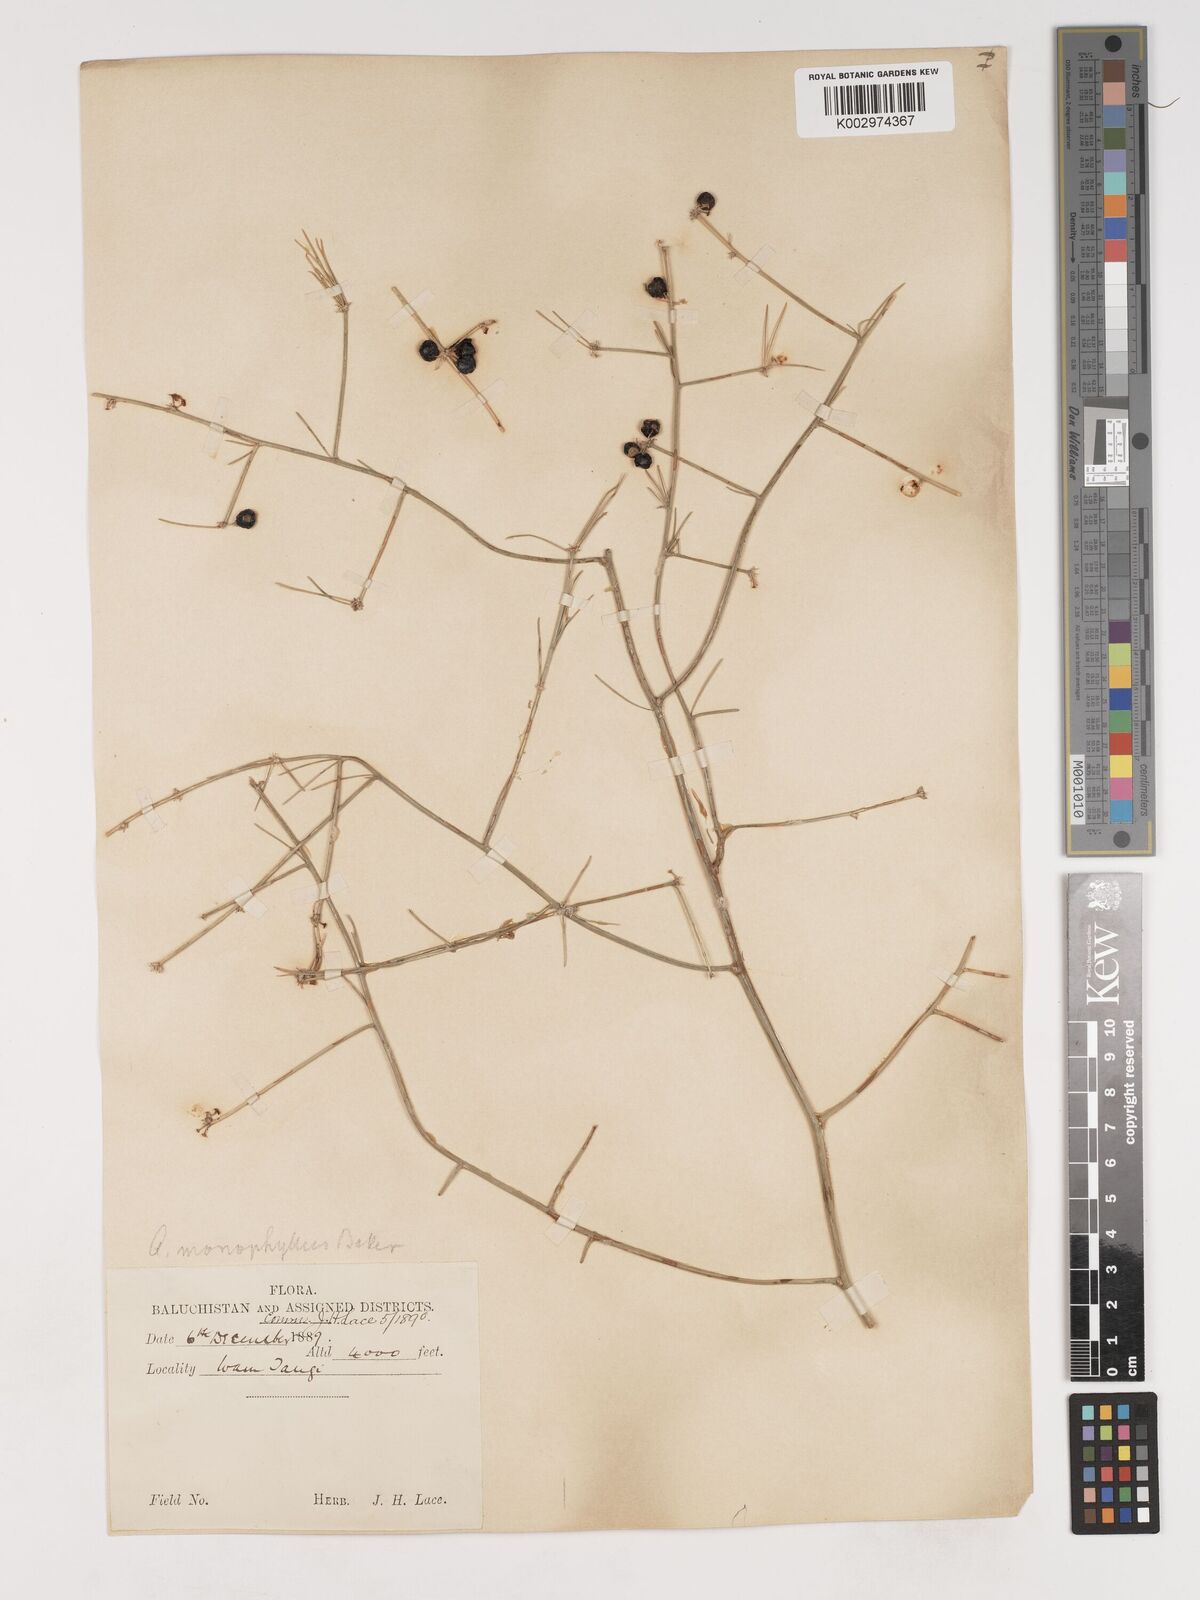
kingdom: Plantae
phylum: Tracheophyta
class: Liliopsida
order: Asparagales
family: Asparagaceae
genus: Asparagus
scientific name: Asparagus monophyllus
